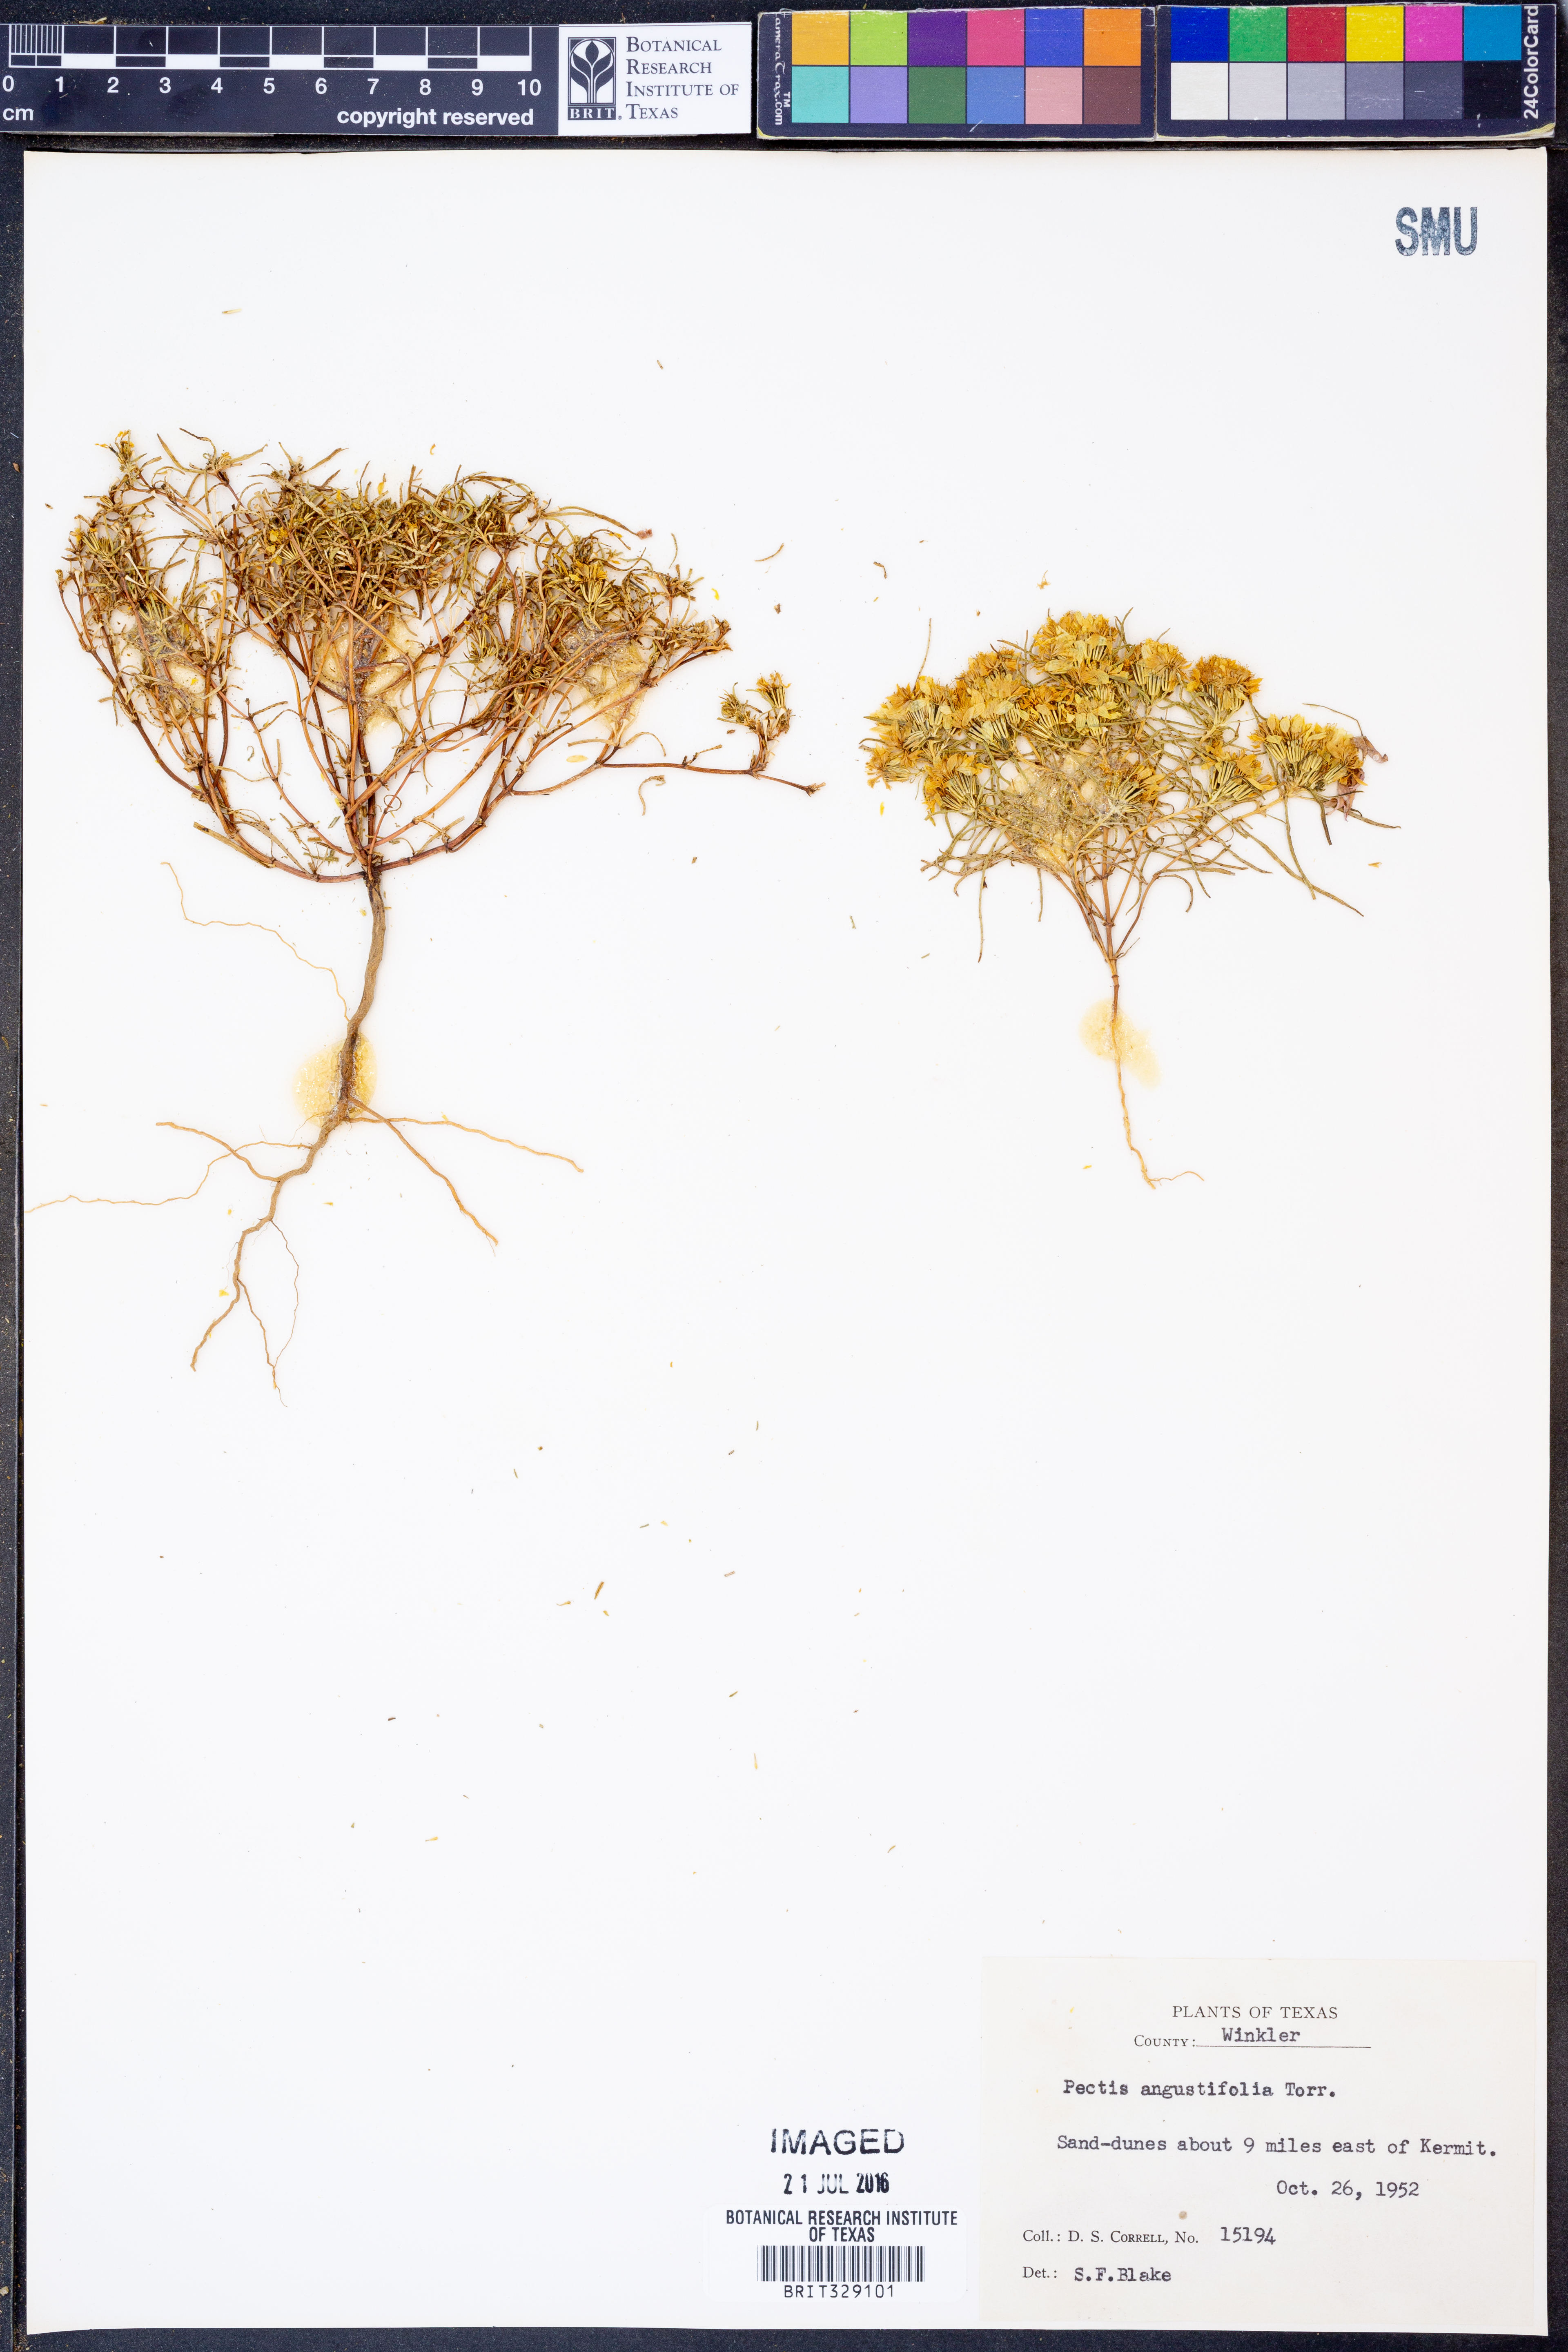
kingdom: Plantae
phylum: Tracheophyta
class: Magnoliopsida
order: Asterales
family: Asteraceae
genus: Pectis
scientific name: Pectis angustifolia
